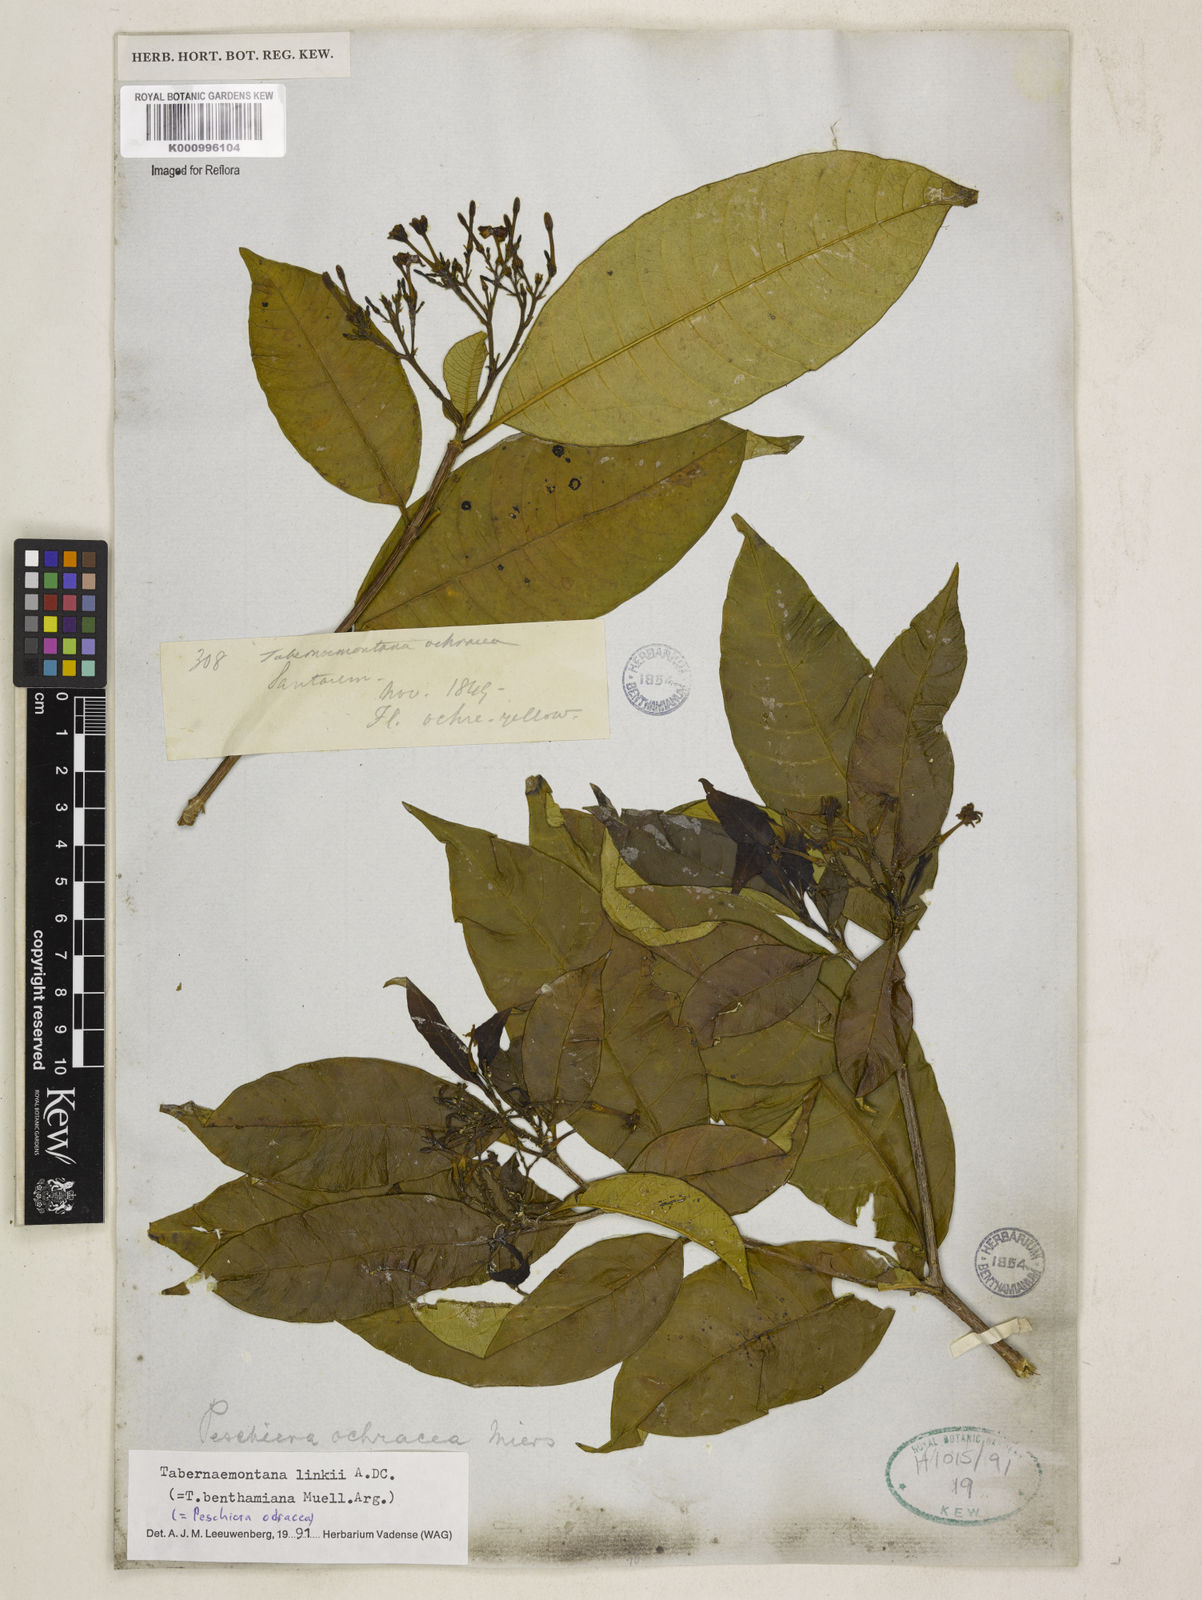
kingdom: Plantae
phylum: Tracheophyta
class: Magnoliopsida
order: Gentianales
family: Apocynaceae
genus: Tabernaemontana
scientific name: Tabernaemontana linkii
